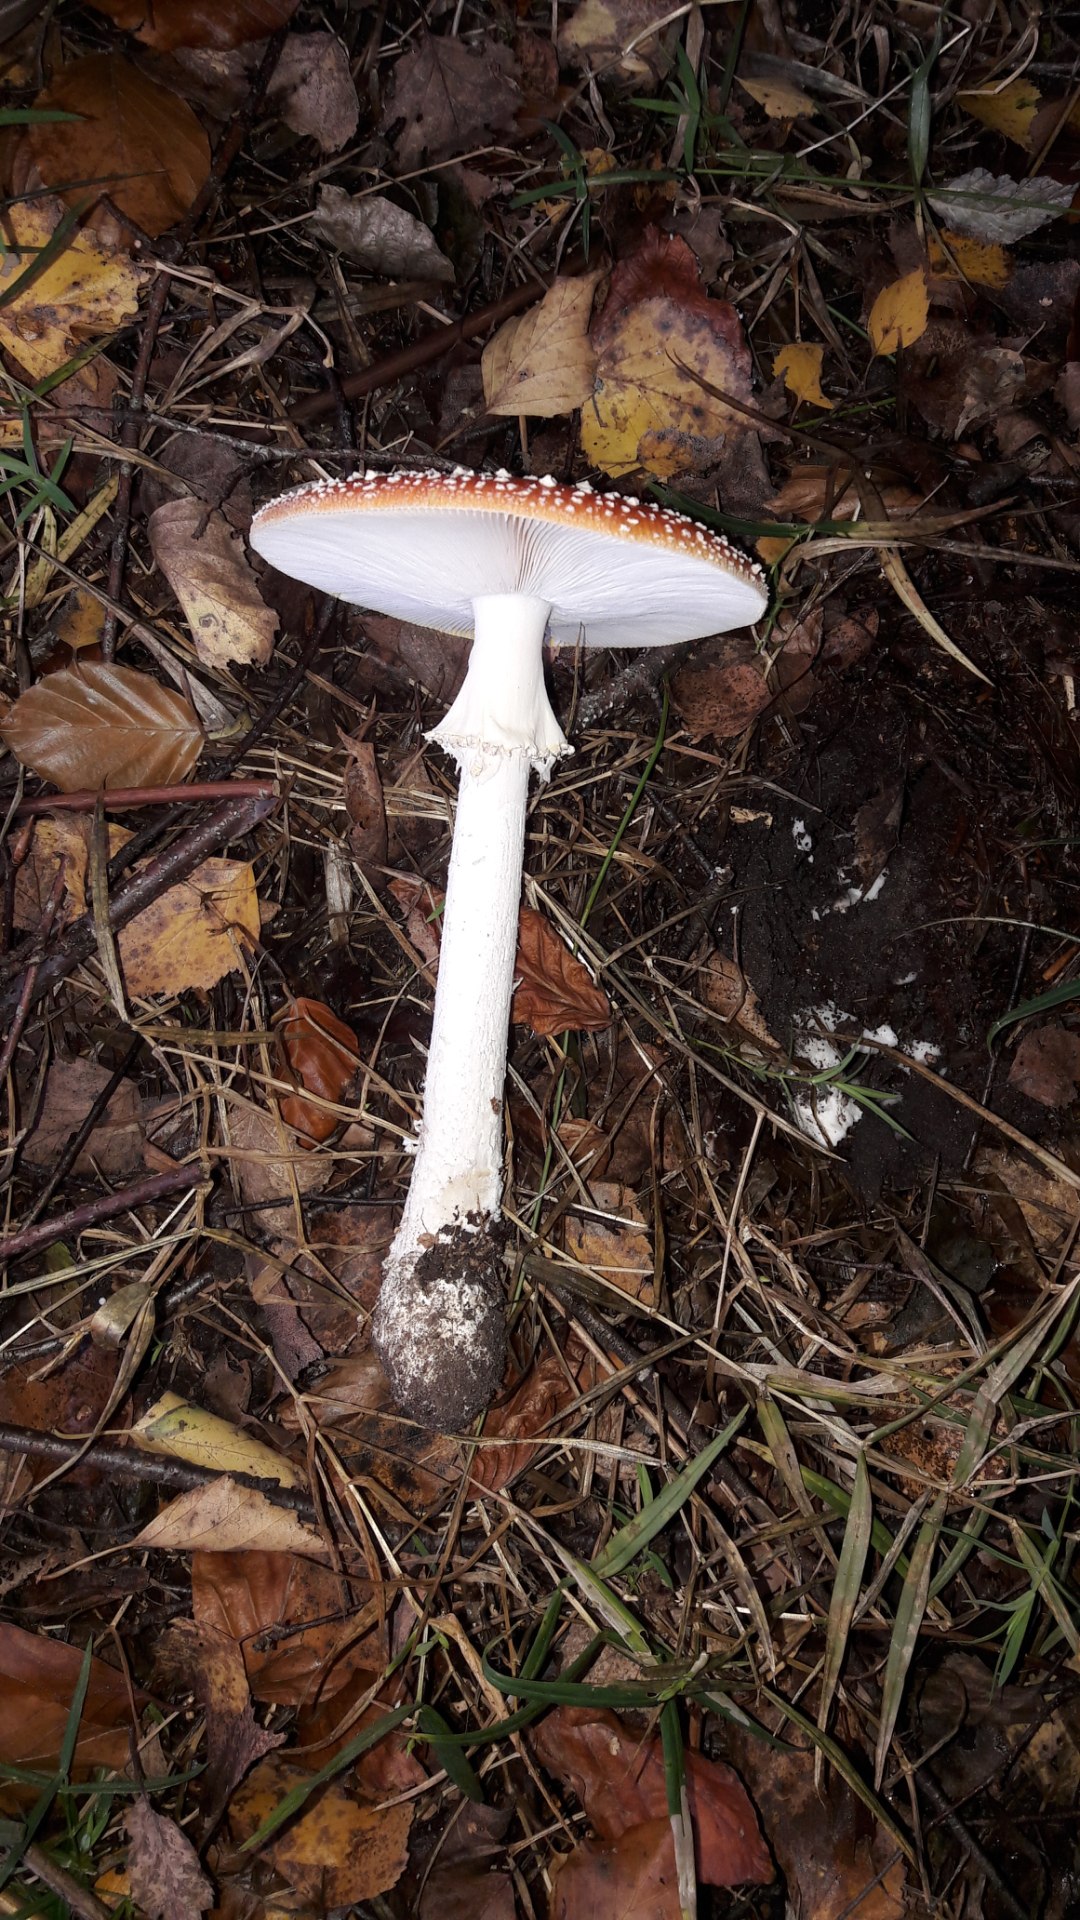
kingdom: Fungi
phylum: Basidiomycota
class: Agaricomycetes
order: Agaricales
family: Amanitaceae
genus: Amanita
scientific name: Amanita muscaria
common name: rød fluesvamp
